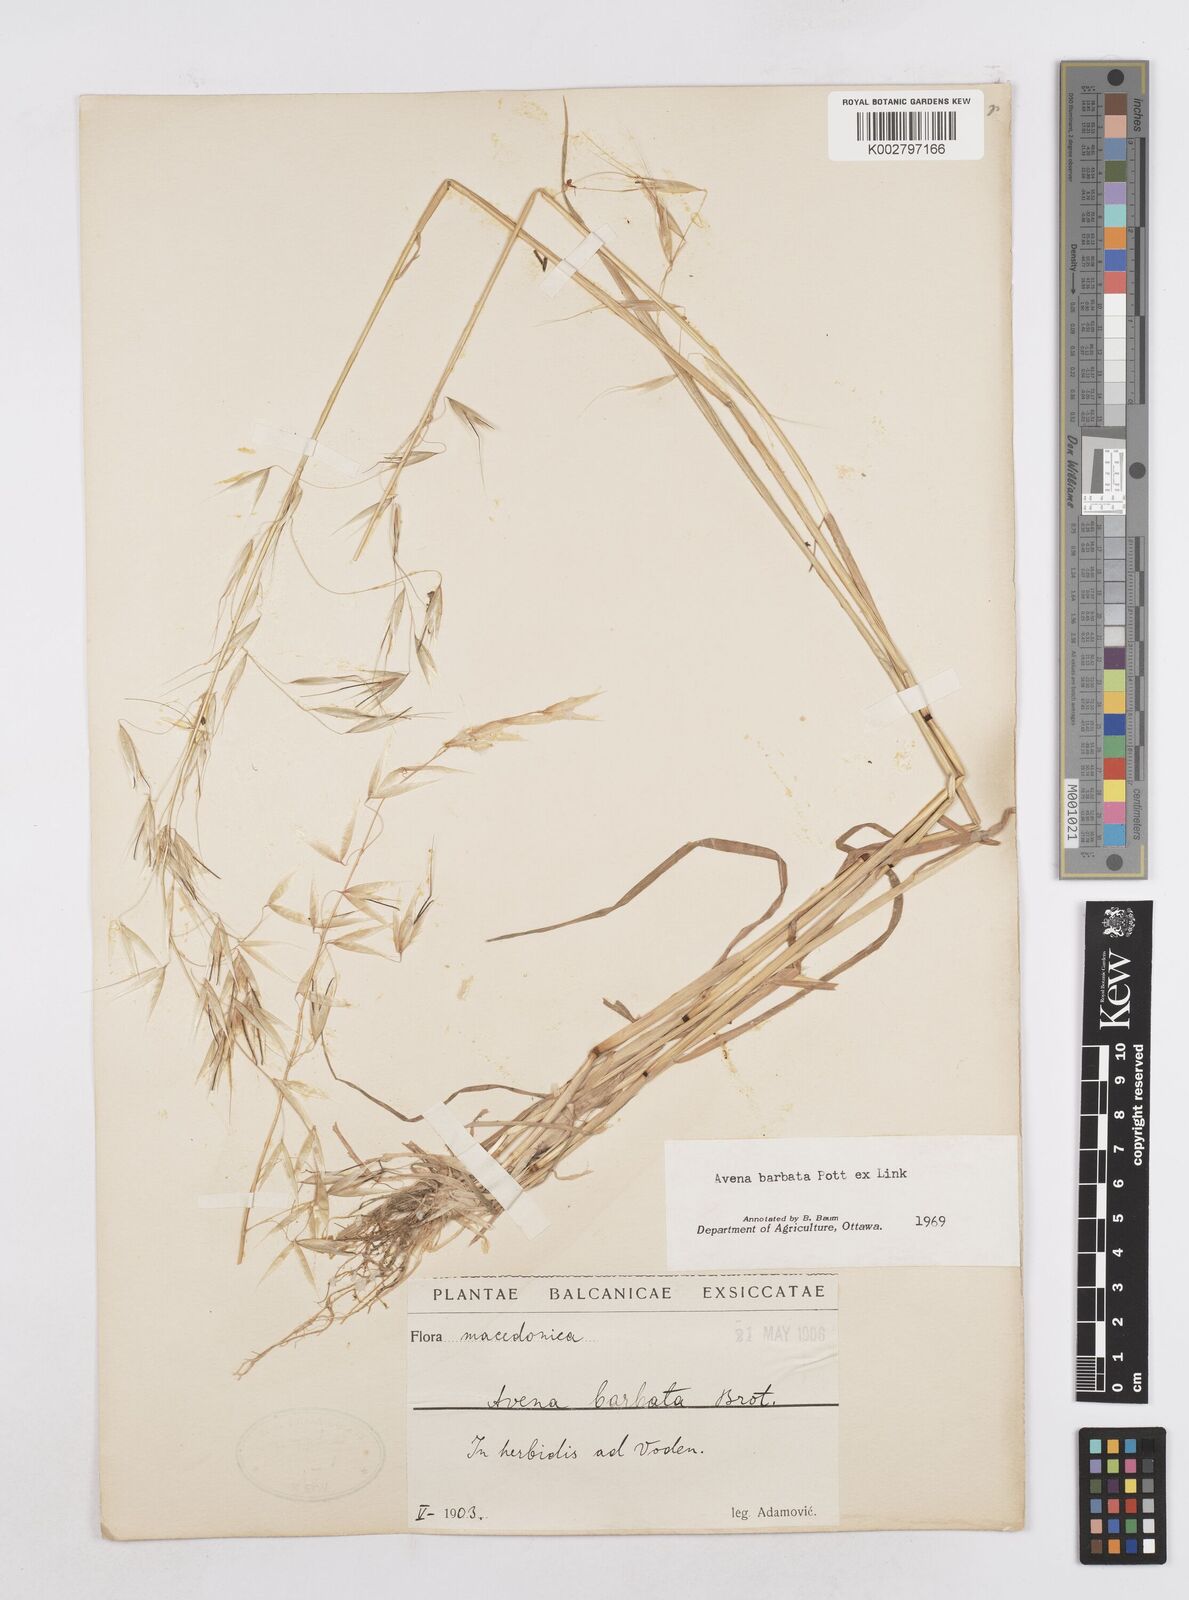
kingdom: Plantae
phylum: Tracheophyta
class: Liliopsida
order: Poales
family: Poaceae
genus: Avena
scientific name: Avena
